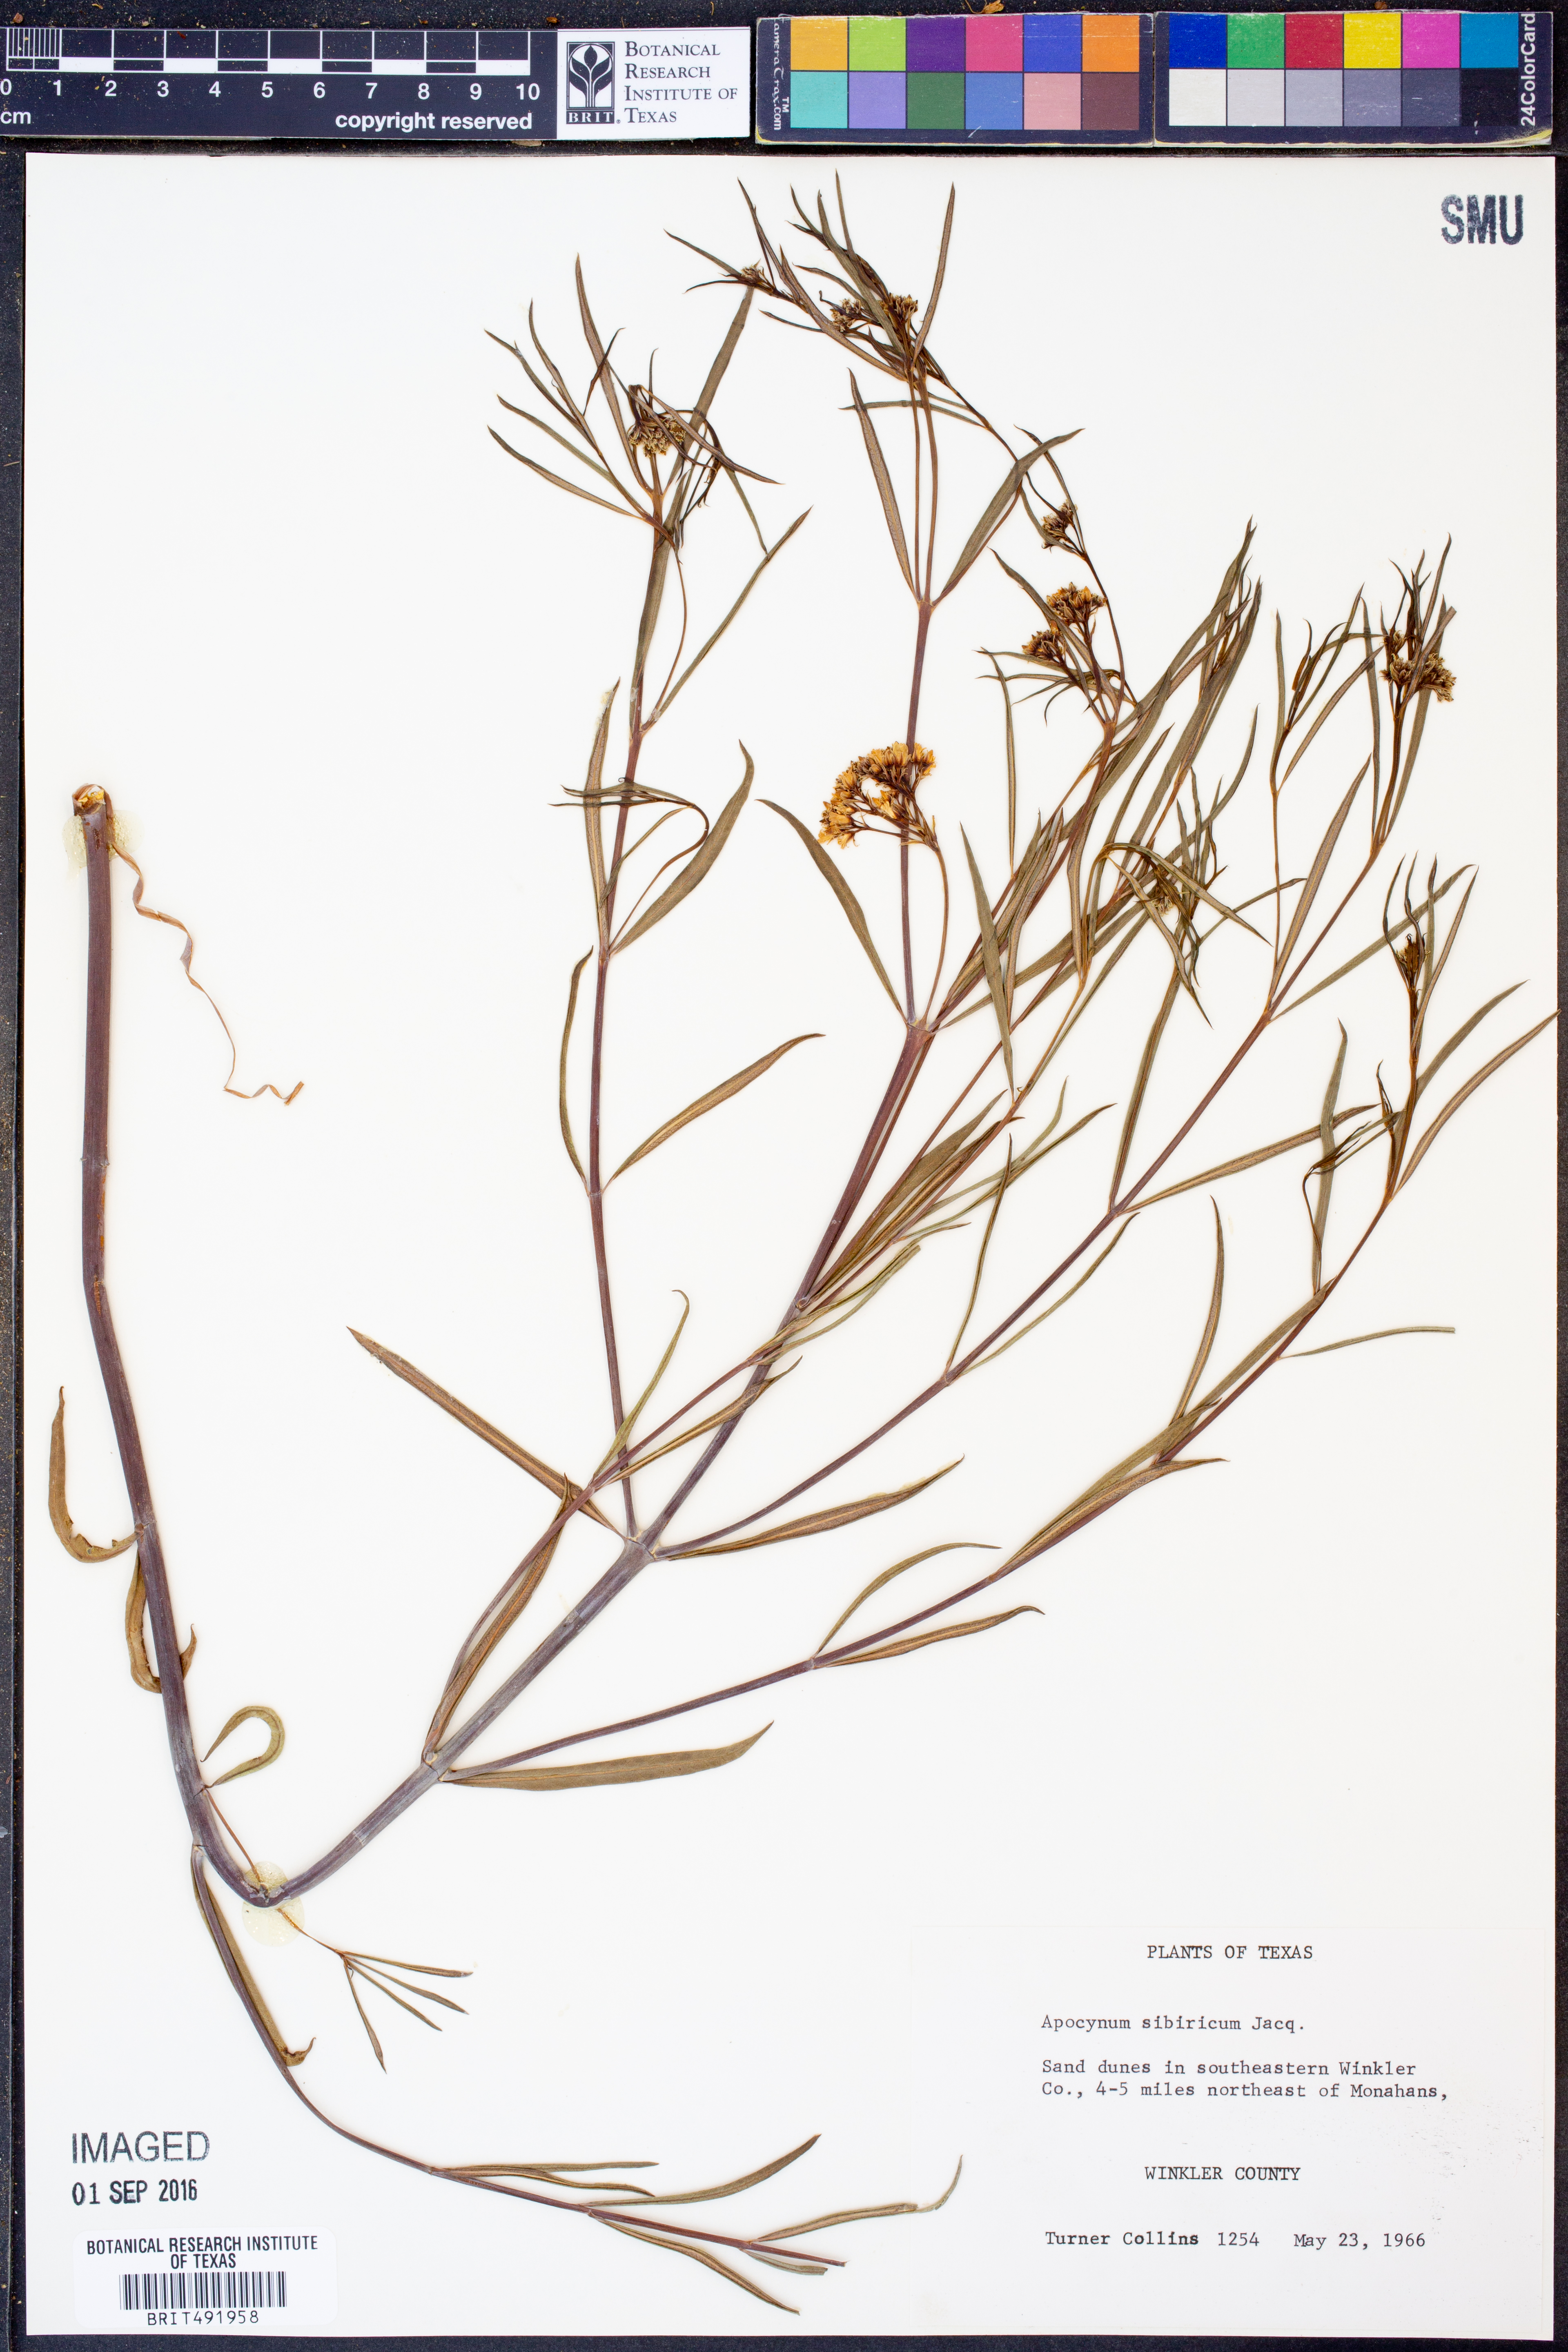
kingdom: Plantae
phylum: Tracheophyta
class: Magnoliopsida
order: Gentianales
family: Apocynaceae
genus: Apocynum
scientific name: Apocynum cannabinum
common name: Hemp dogbane
